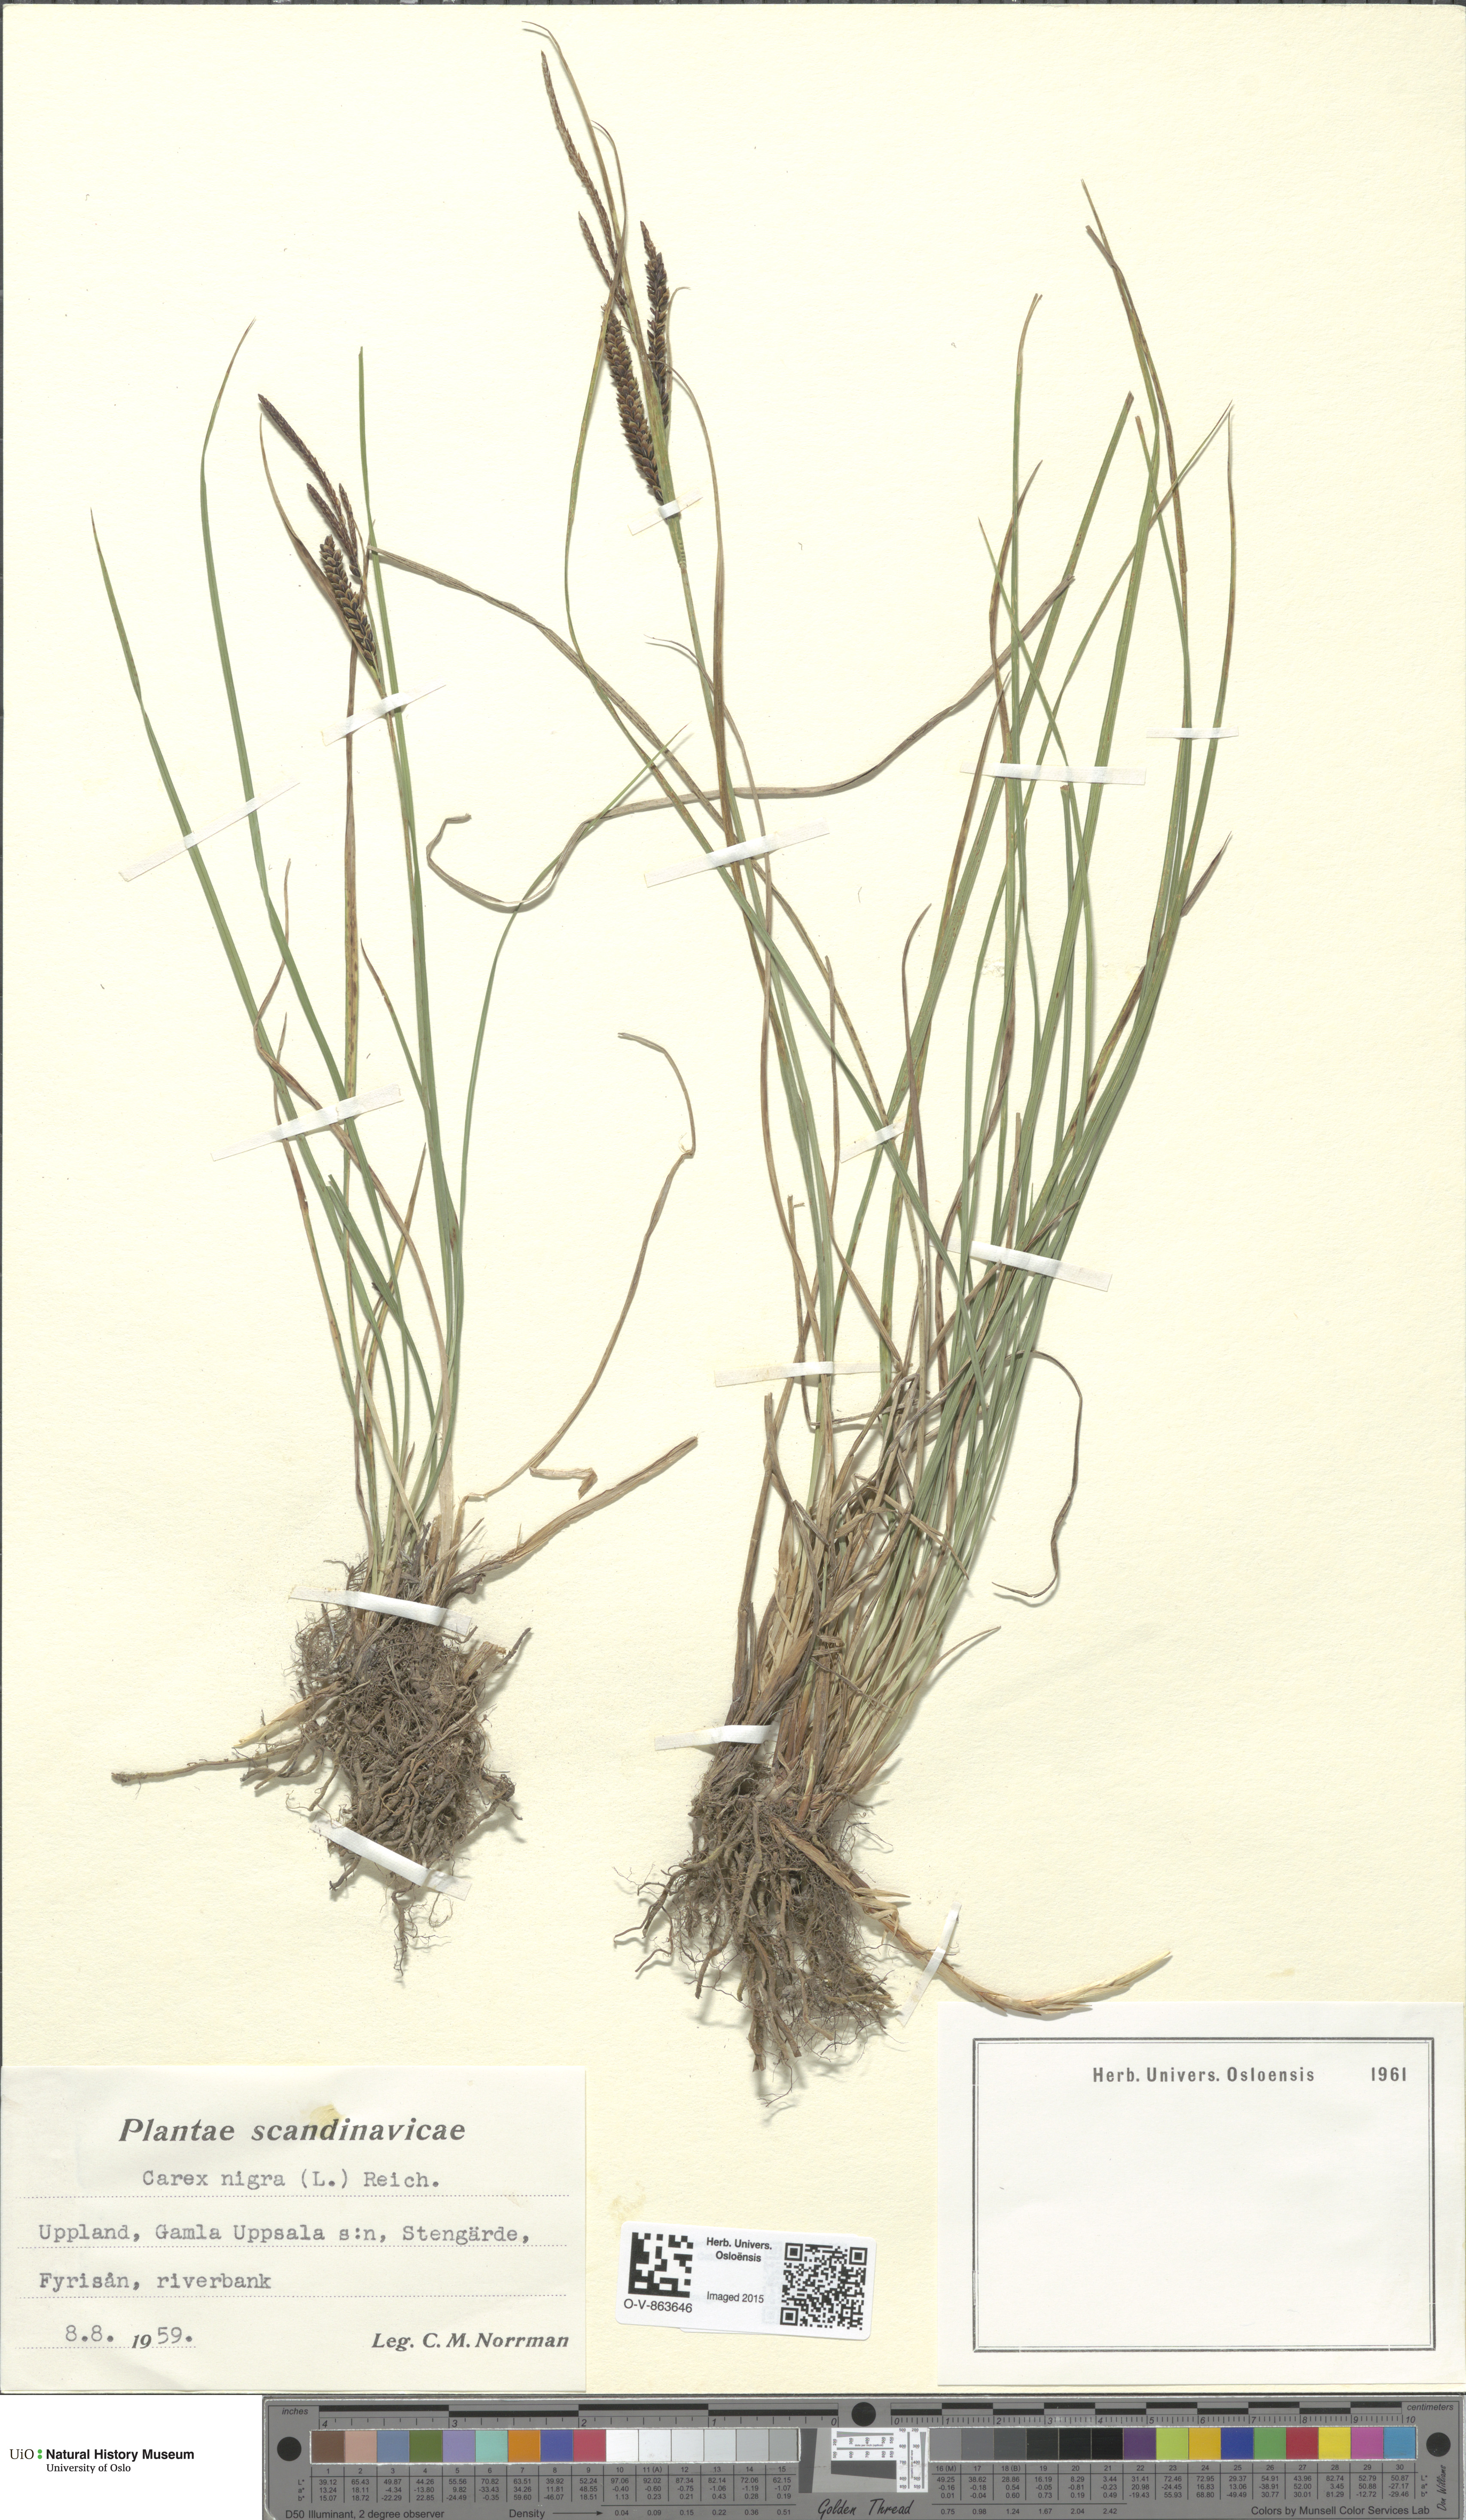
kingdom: Plantae
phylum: Tracheophyta
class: Liliopsida
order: Poales
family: Cyperaceae
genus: Carex
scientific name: Carex nigra
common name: Common sedge
